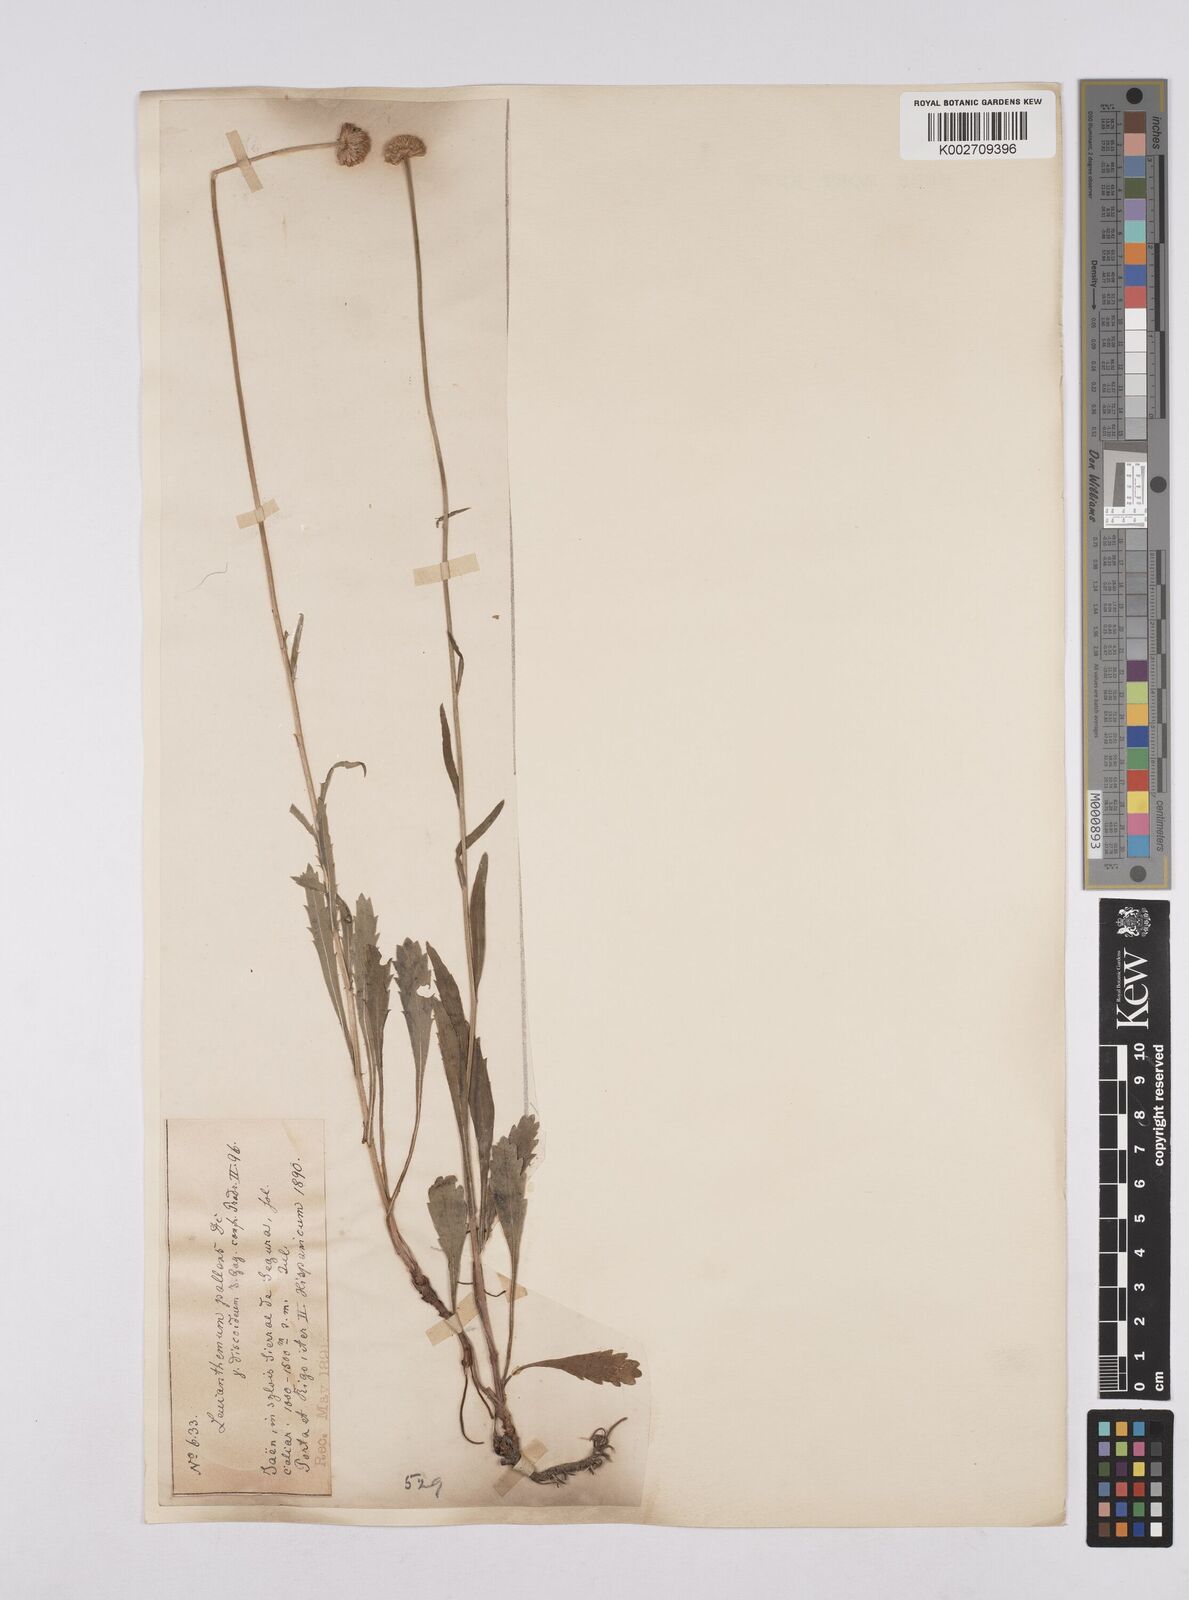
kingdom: Plantae
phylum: Tracheophyta
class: Magnoliopsida
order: Asterales
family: Asteraceae
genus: Leucanthemum
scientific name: Leucanthemum vulgare
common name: Oxeye daisy
